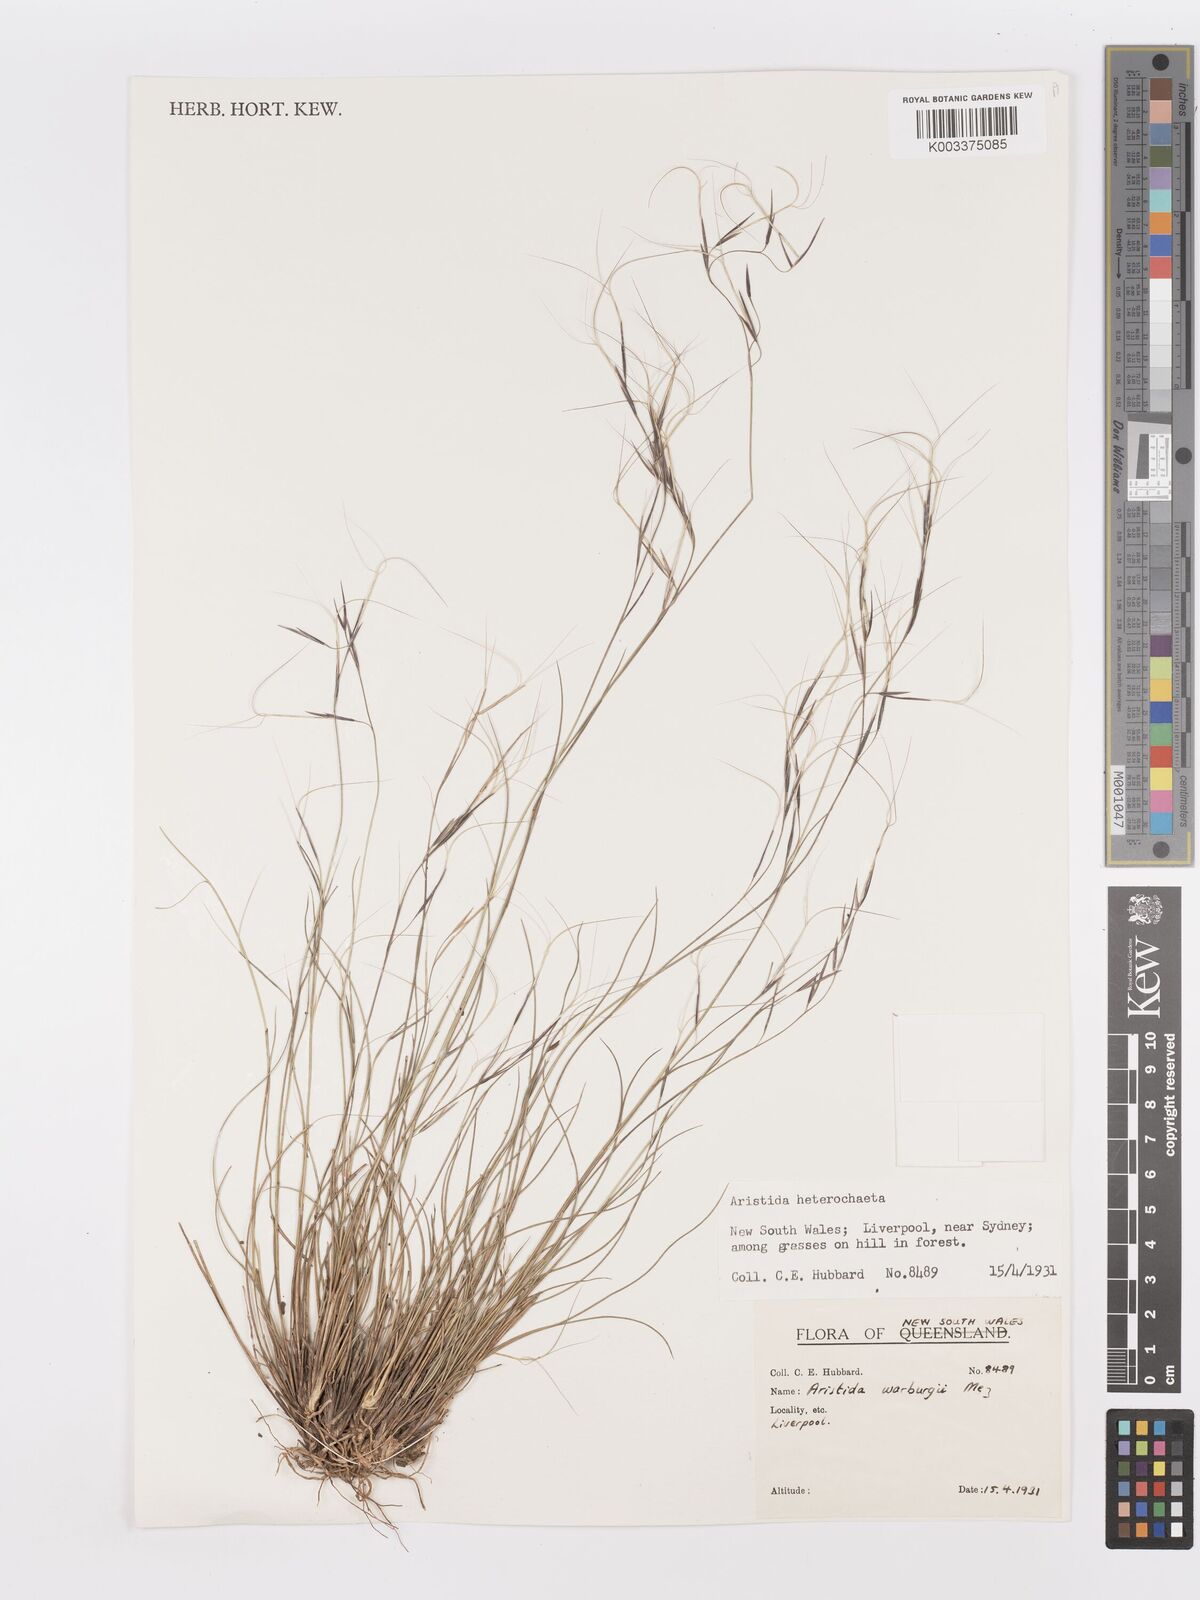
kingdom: Plantae
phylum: Tracheophyta
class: Liliopsida
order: Poales
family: Poaceae
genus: Aristida
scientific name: Aristida warburgii
